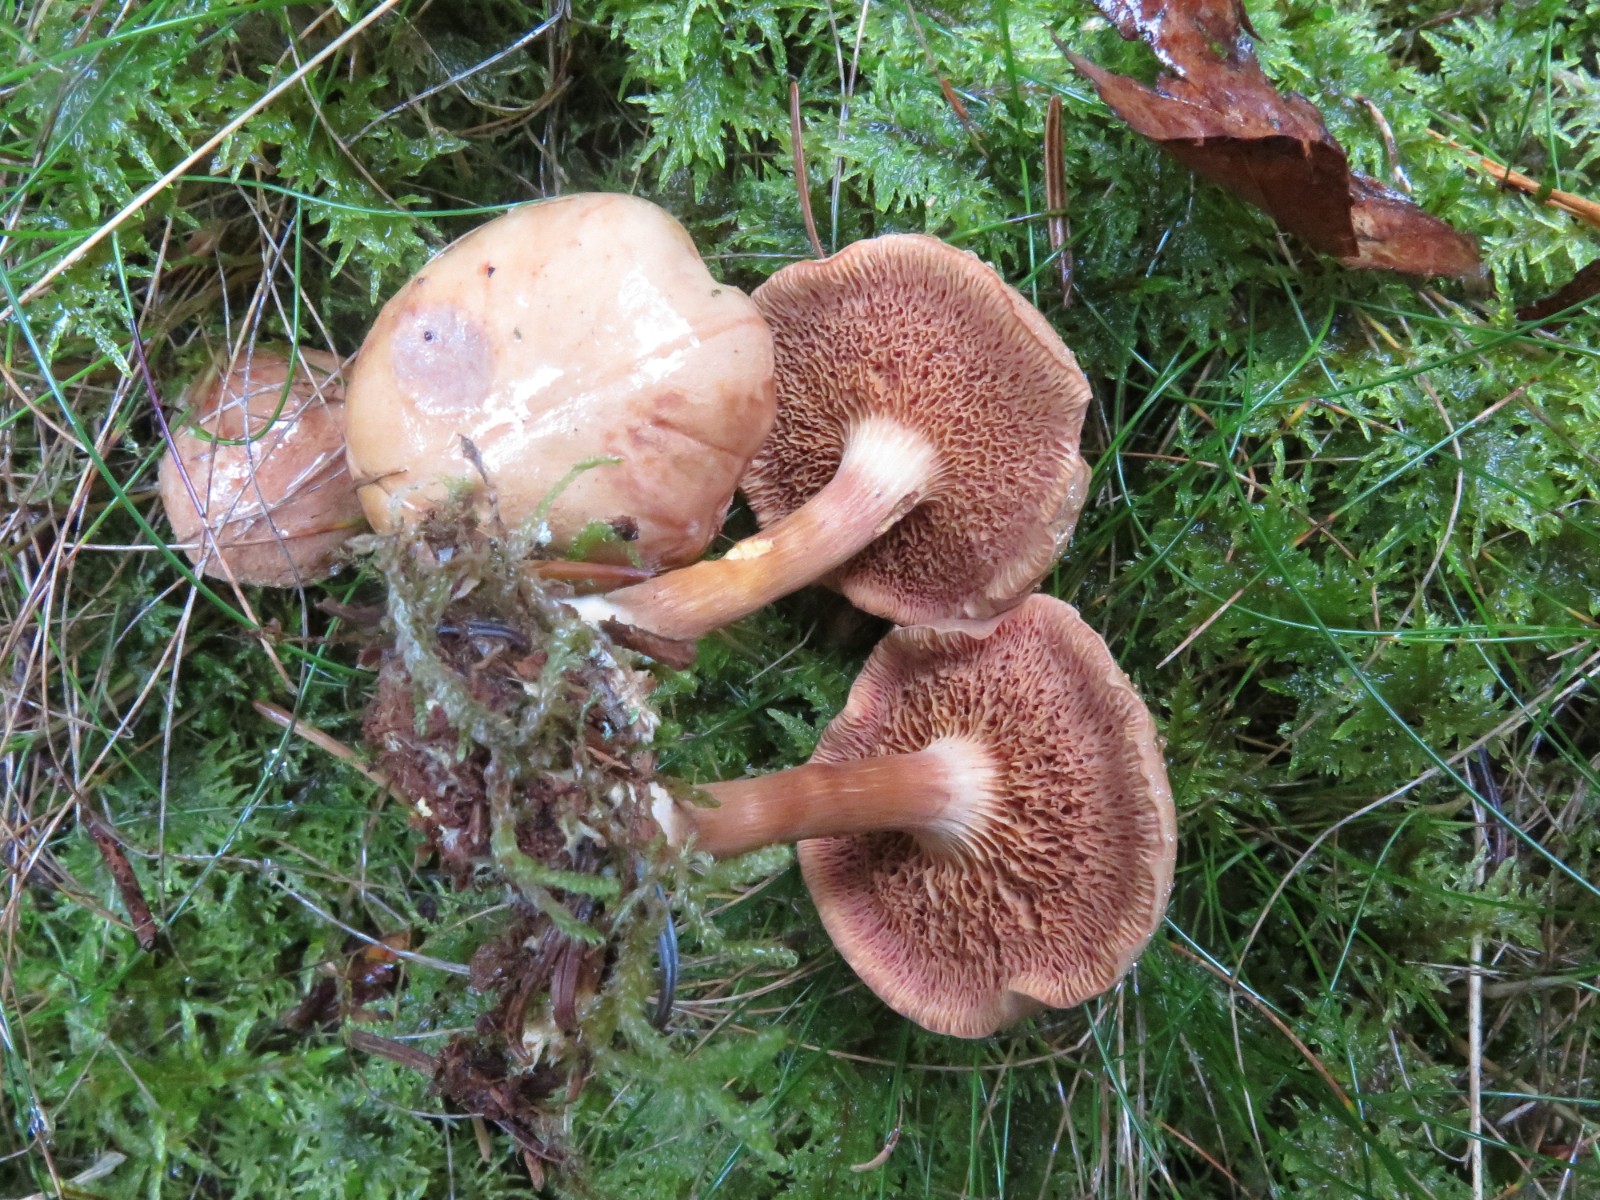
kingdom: Fungi
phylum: Basidiomycota
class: Agaricomycetes
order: Boletales
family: Boletaceae
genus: Chalciporus
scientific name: Chalciporus piperatus
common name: peberrørhat
